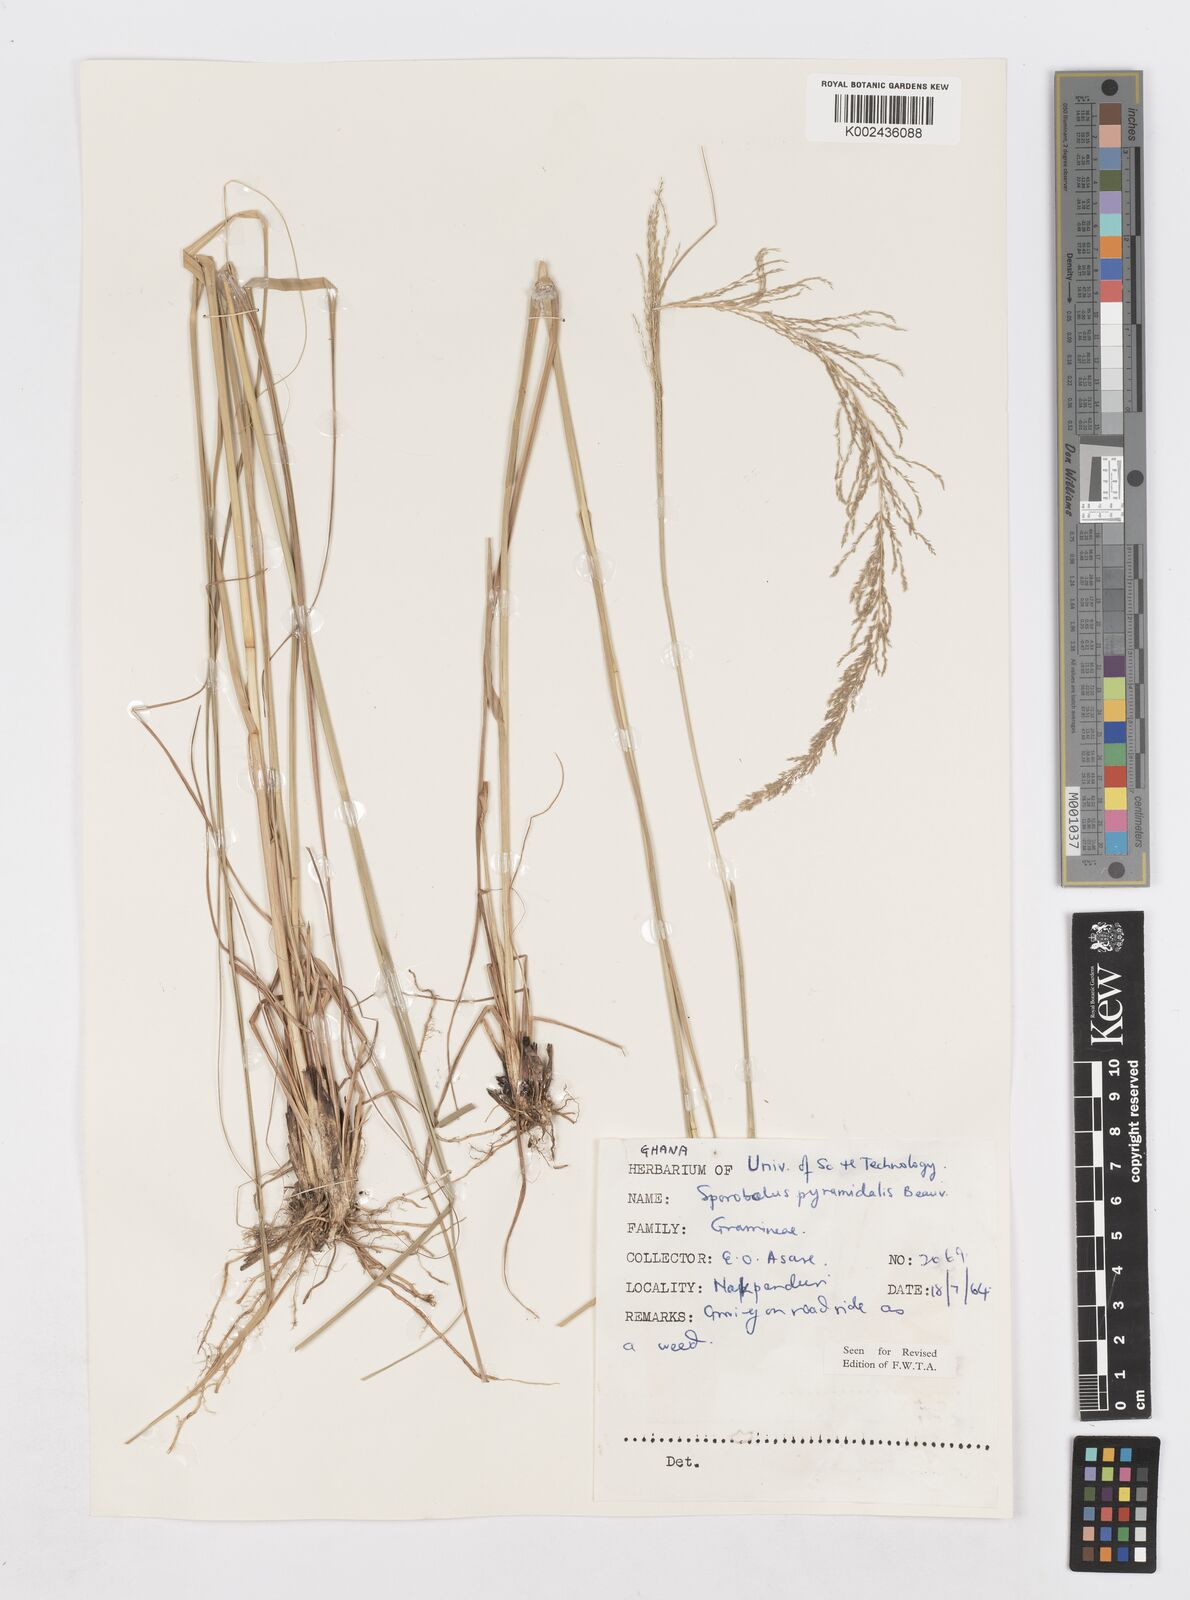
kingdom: Plantae
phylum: Tracheophyta
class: Liliopsida
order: Poales
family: Poaceae
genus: Sporobolus
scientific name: Sporobolus pyramidalis
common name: West indian dropseed
